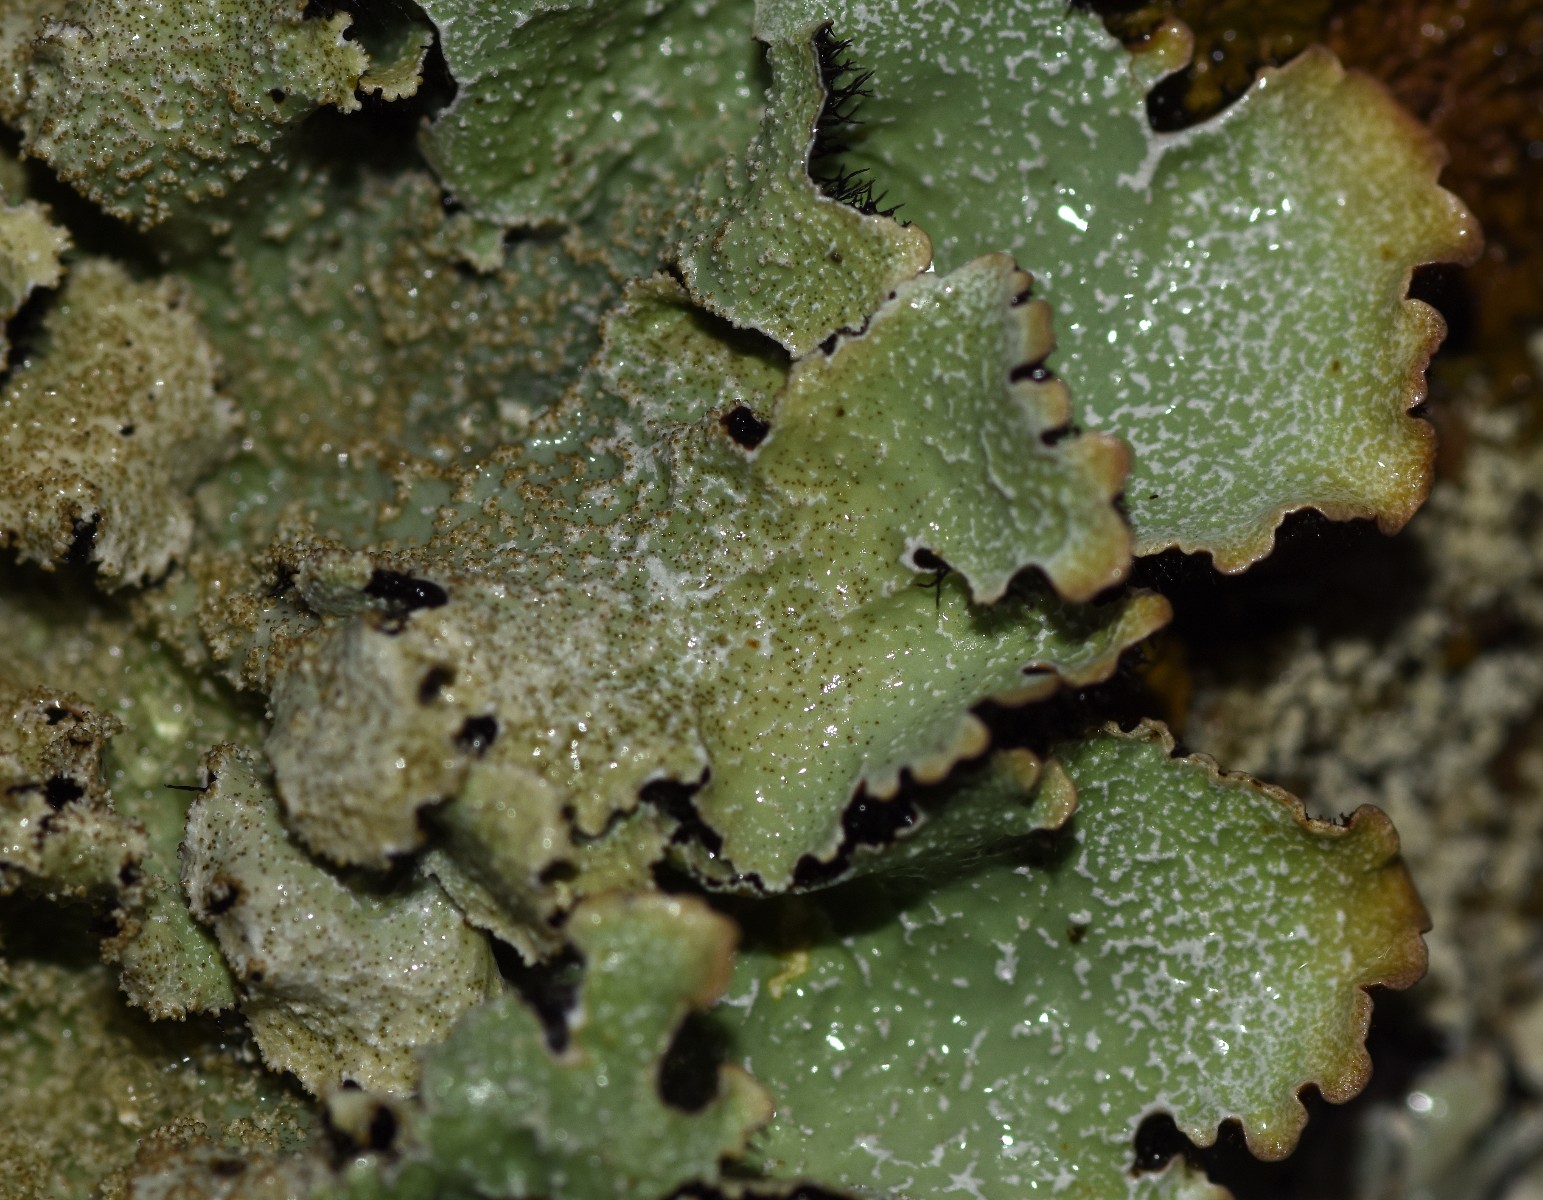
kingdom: Fungi
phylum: Ascomycota
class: Lecanoromycetes
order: Lecanorales
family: Parmeliaceae
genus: Parmelia
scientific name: Parmelia saxatilis
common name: farve-skållav
